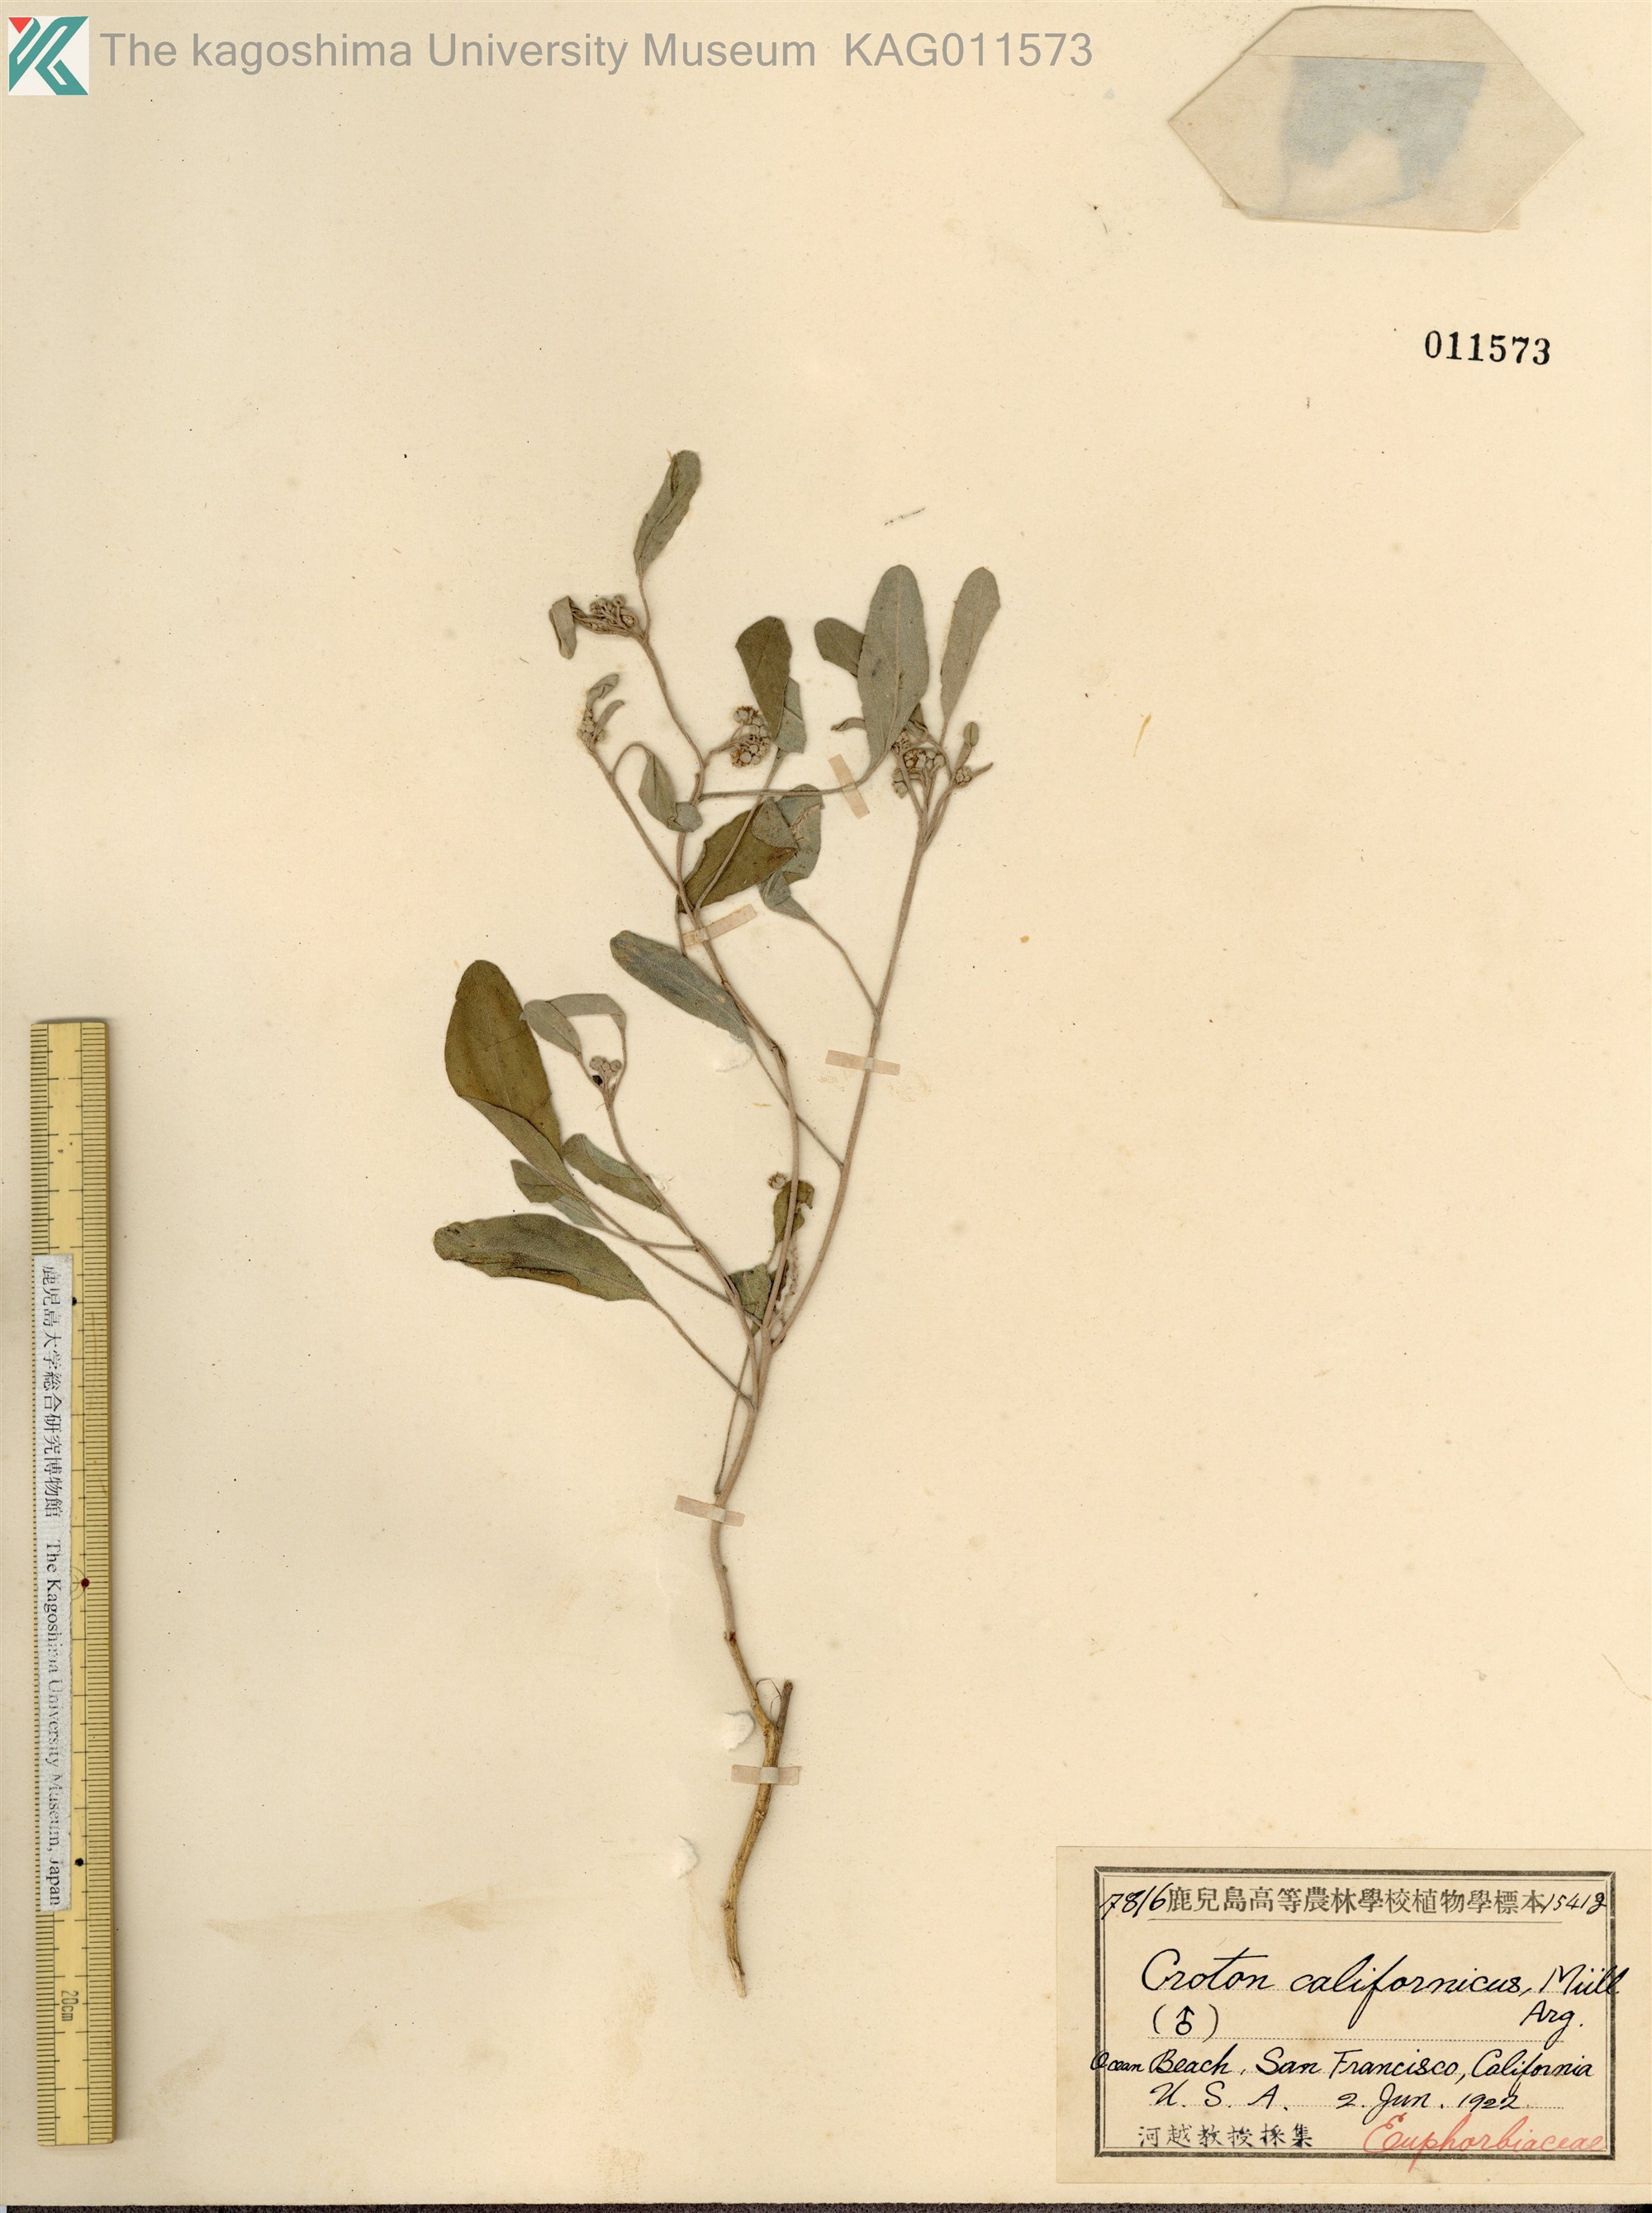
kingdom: Plantae
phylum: Tracheophyta
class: Magnoliopsida
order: Malpighiales
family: Euphorbiaceae
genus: Croton
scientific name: Croton californicus
